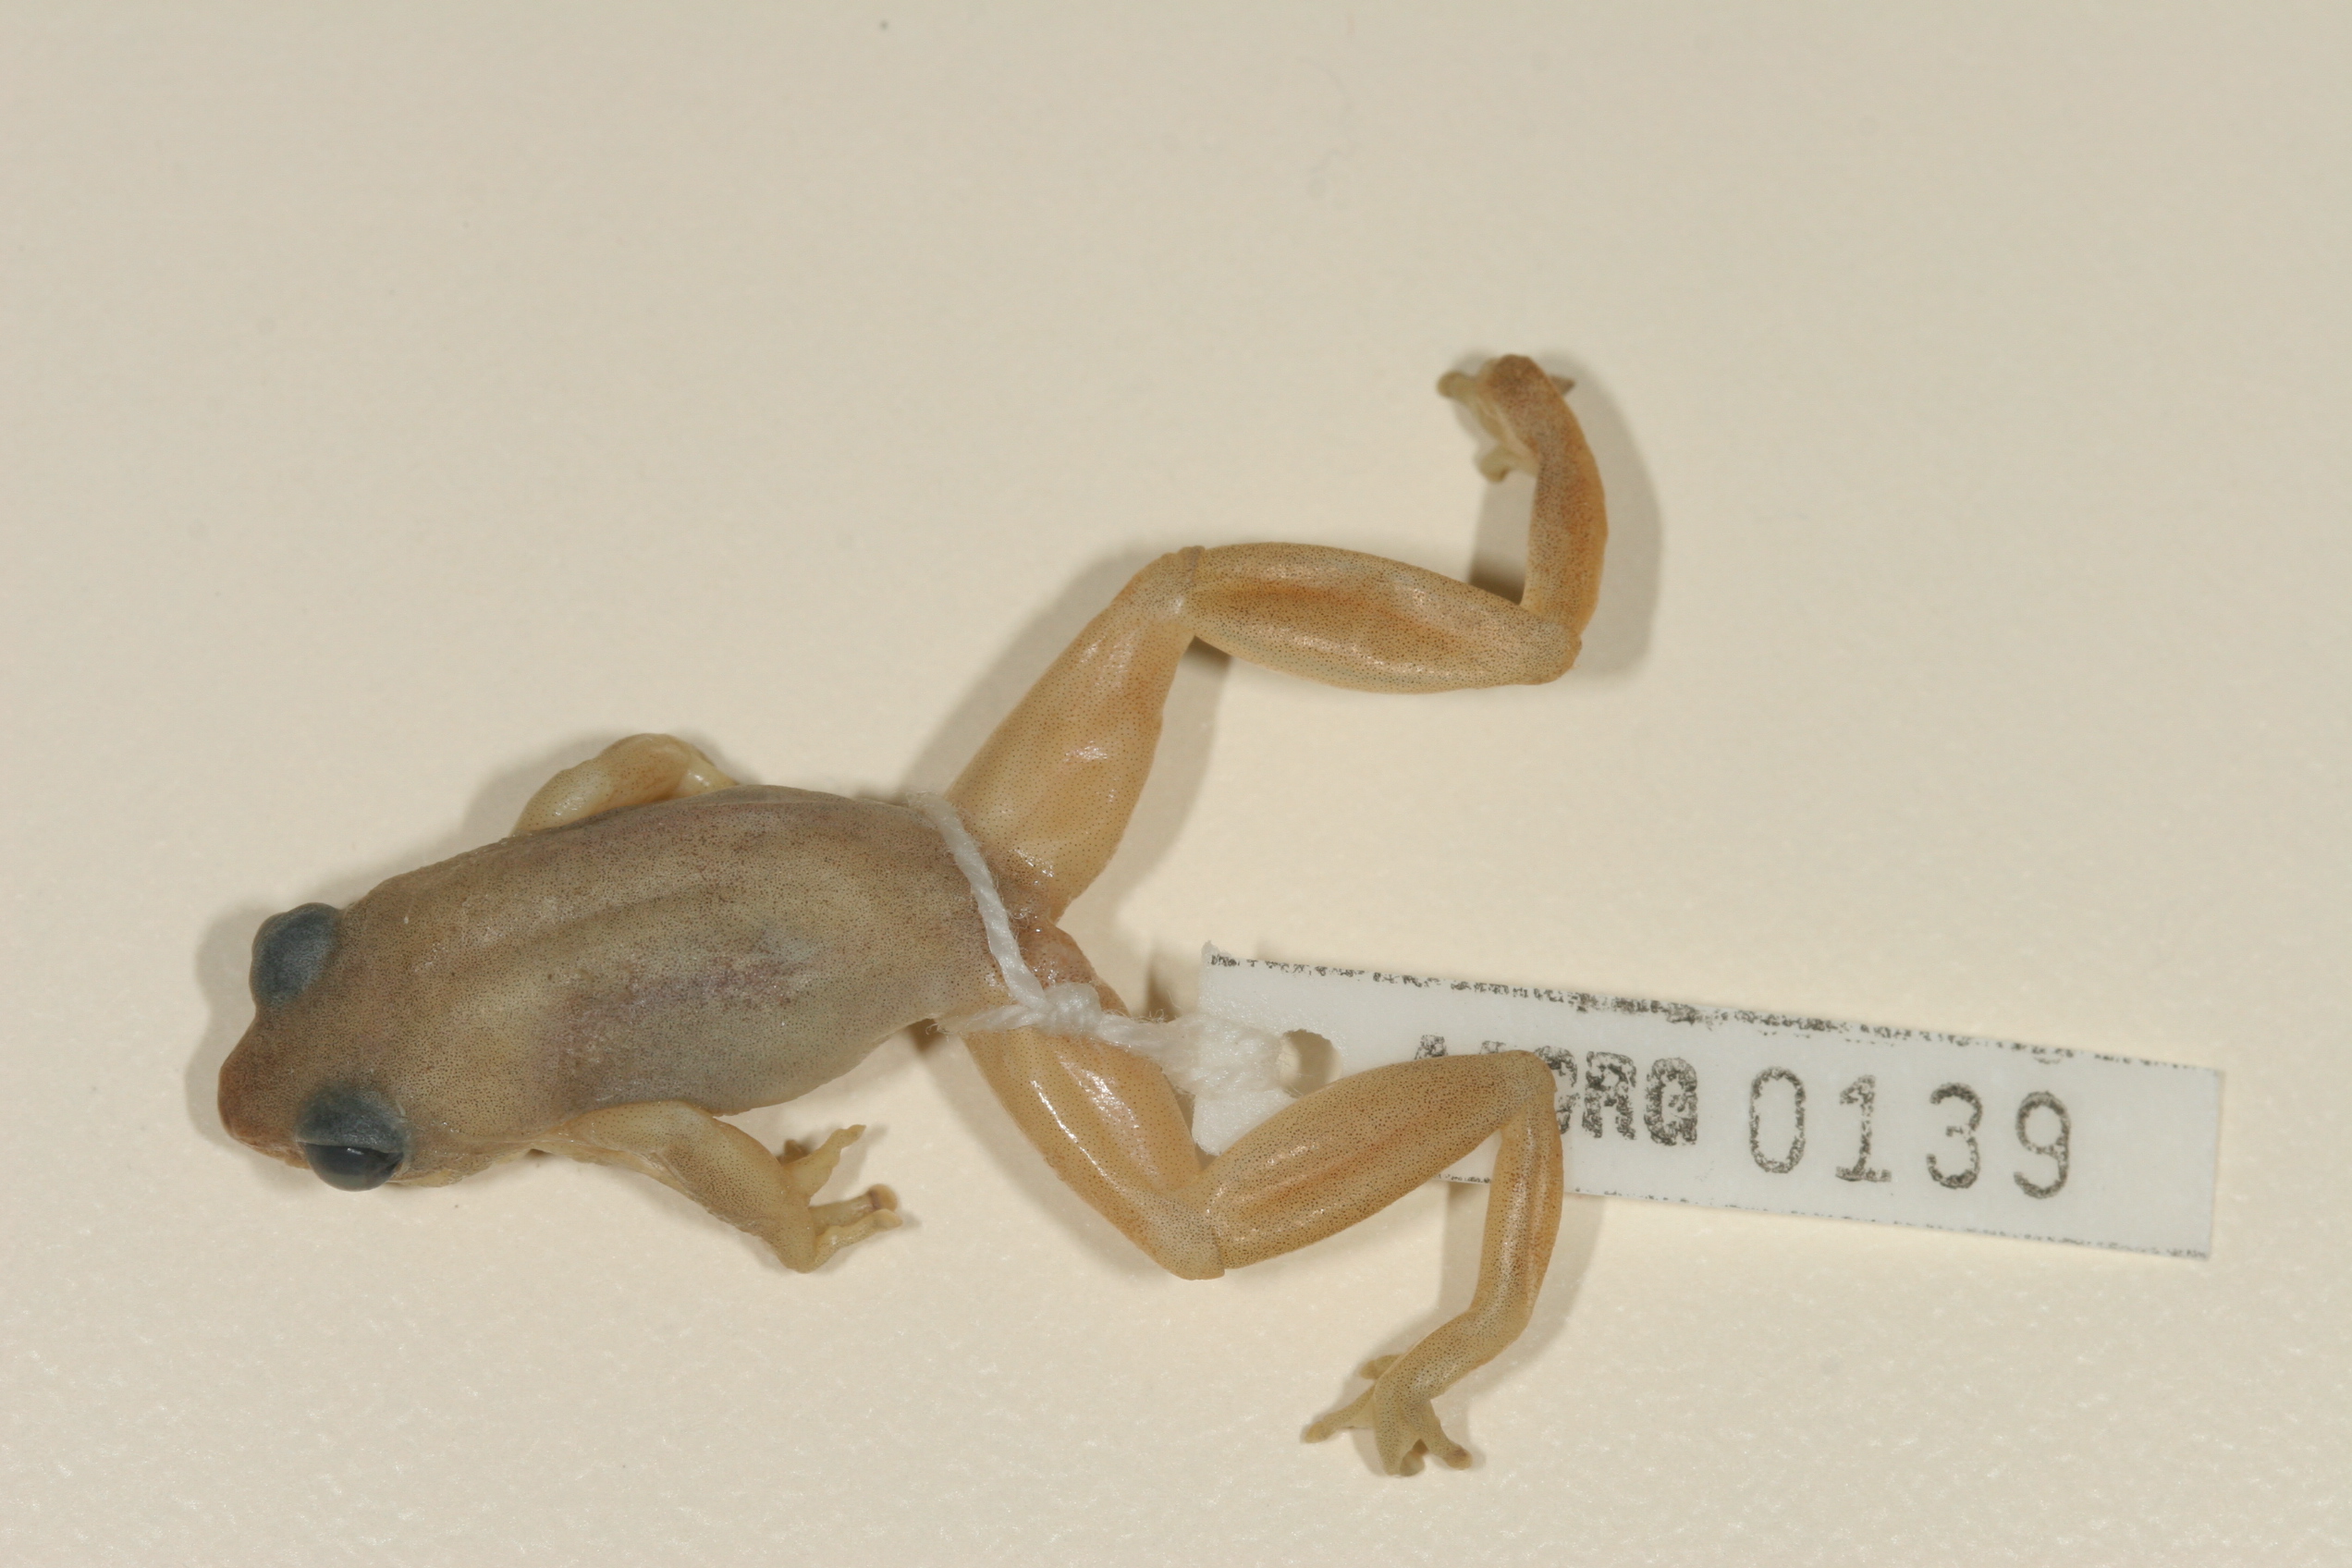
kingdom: Animalia
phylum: Chordata
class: Amphibia
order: Anura
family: Hyperoliidae
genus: Hyperolius
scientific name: Hyperolius tuberilinguis
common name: Tinker reed frog
